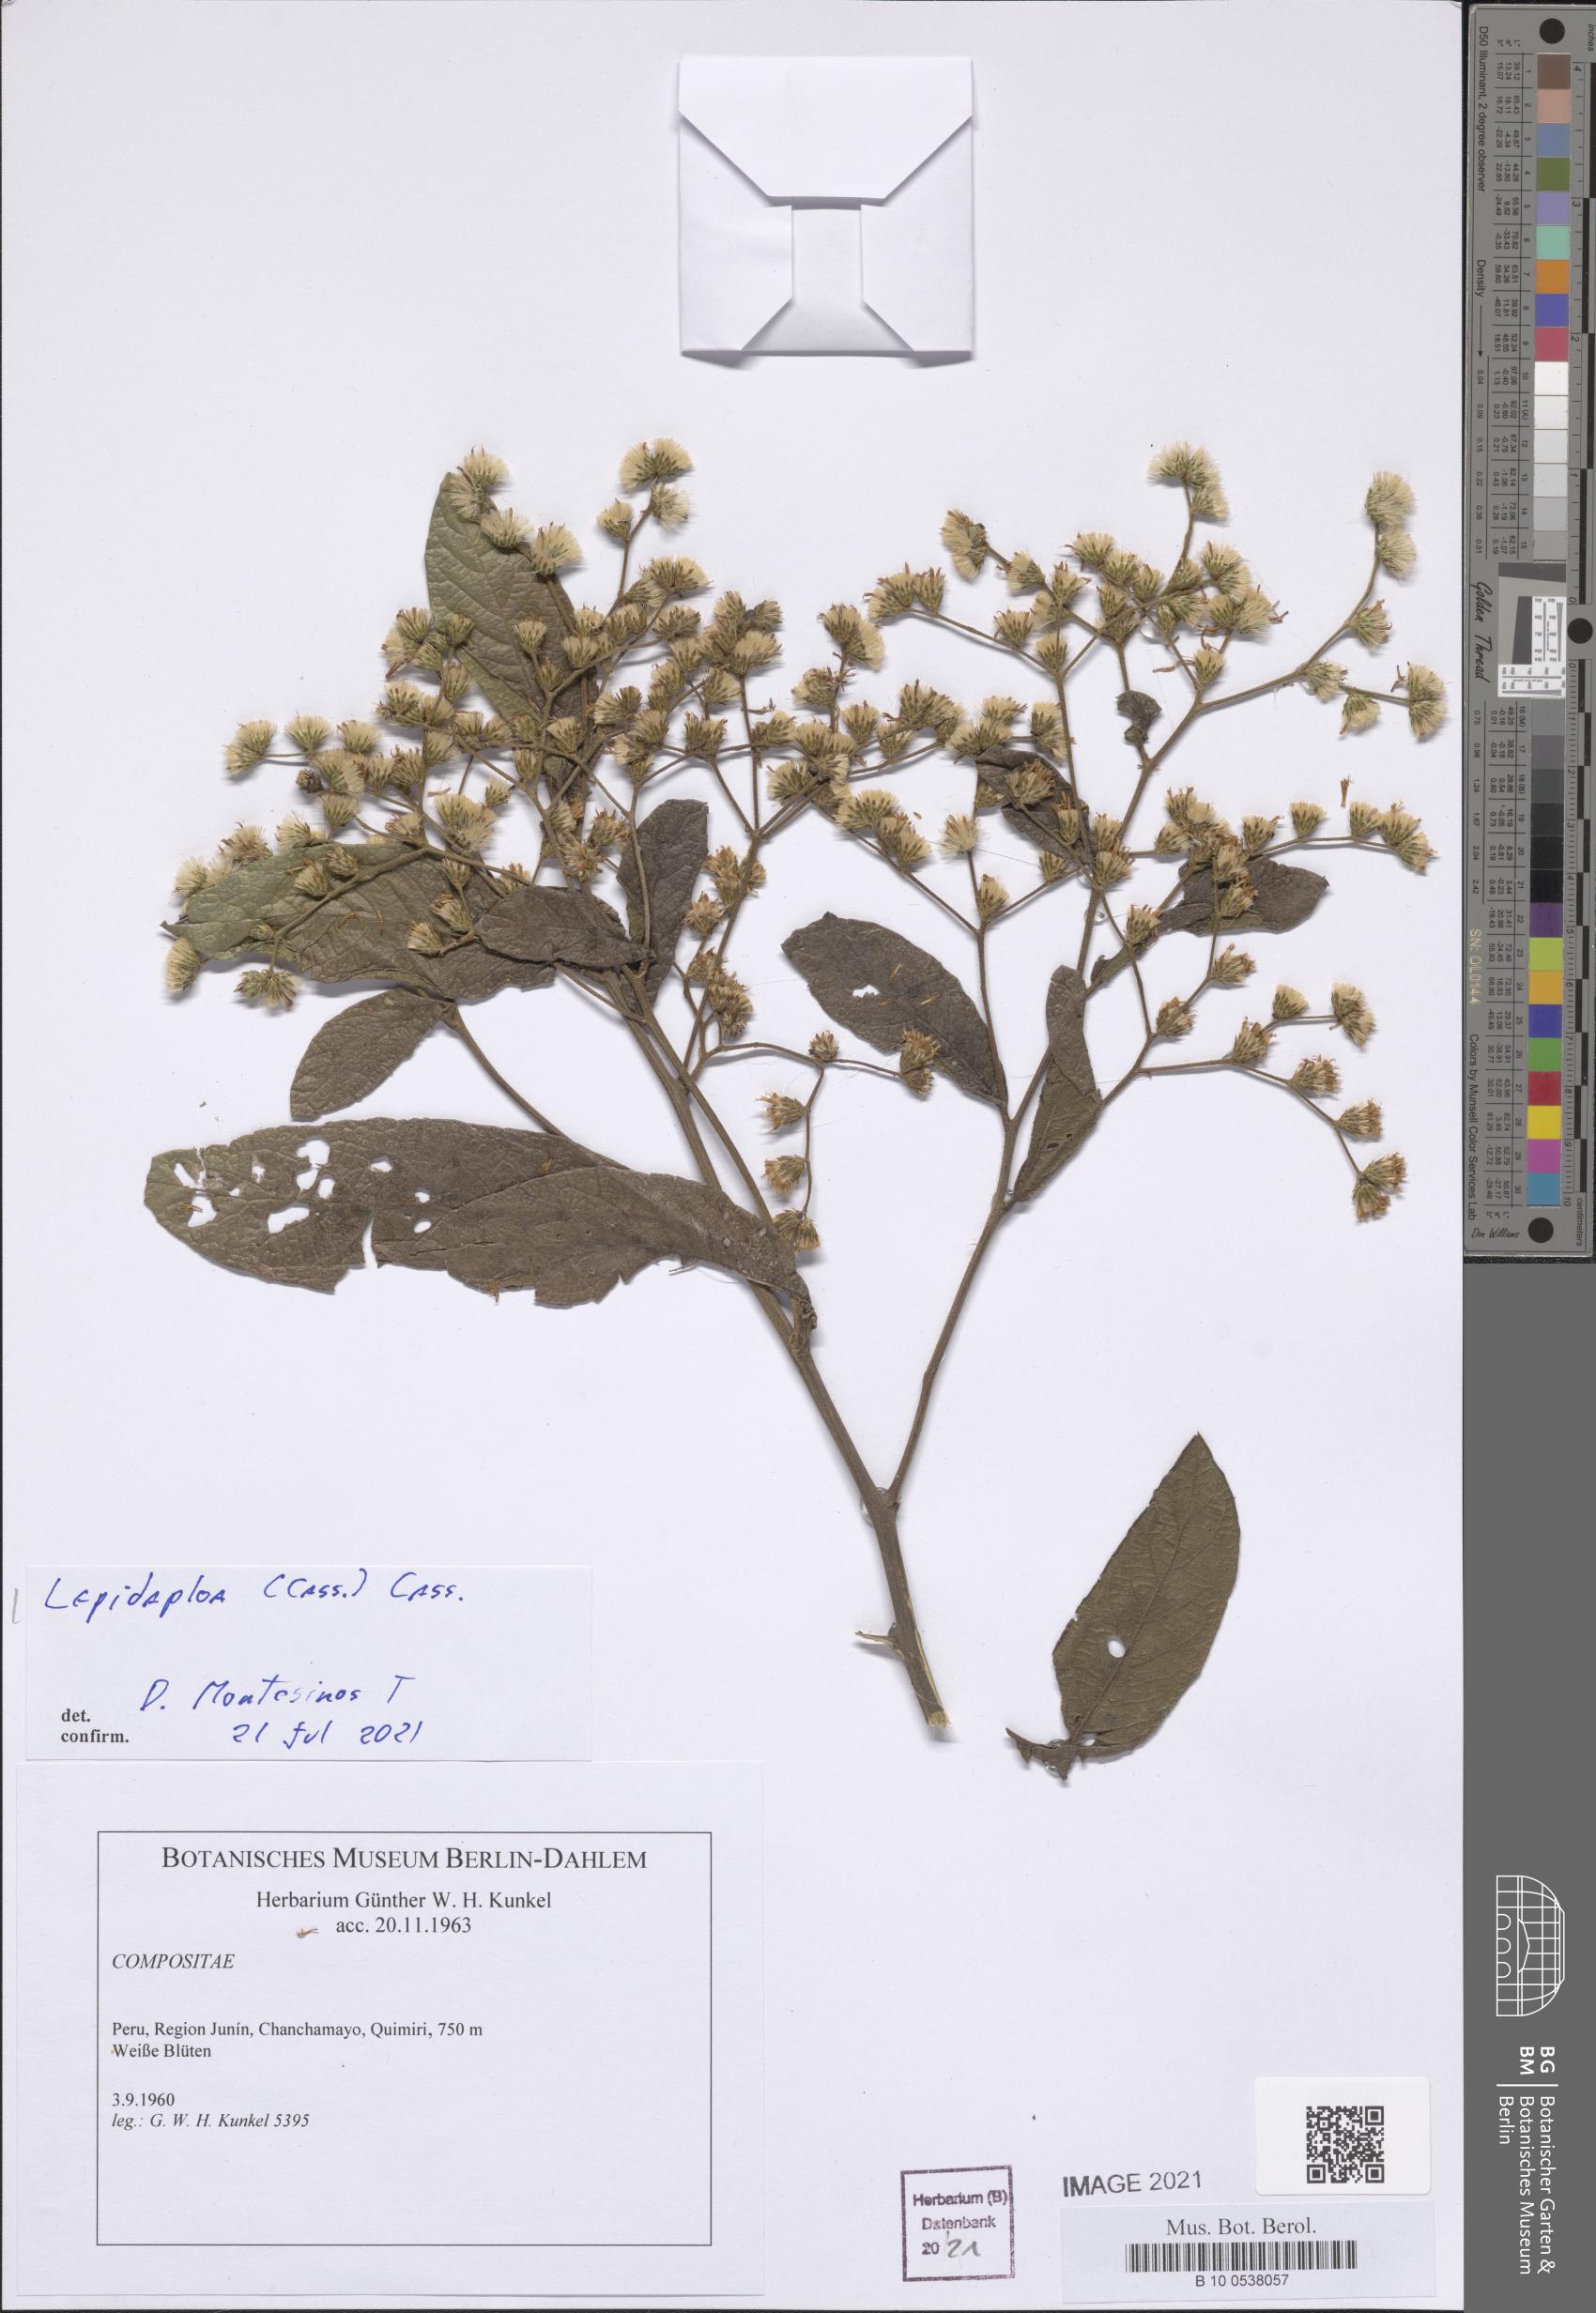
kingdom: Plantae
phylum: Tracheophyta
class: Magnoliopsida
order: Asterales
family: Asteraceae
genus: Lepidaploa
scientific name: Lepidaploa
